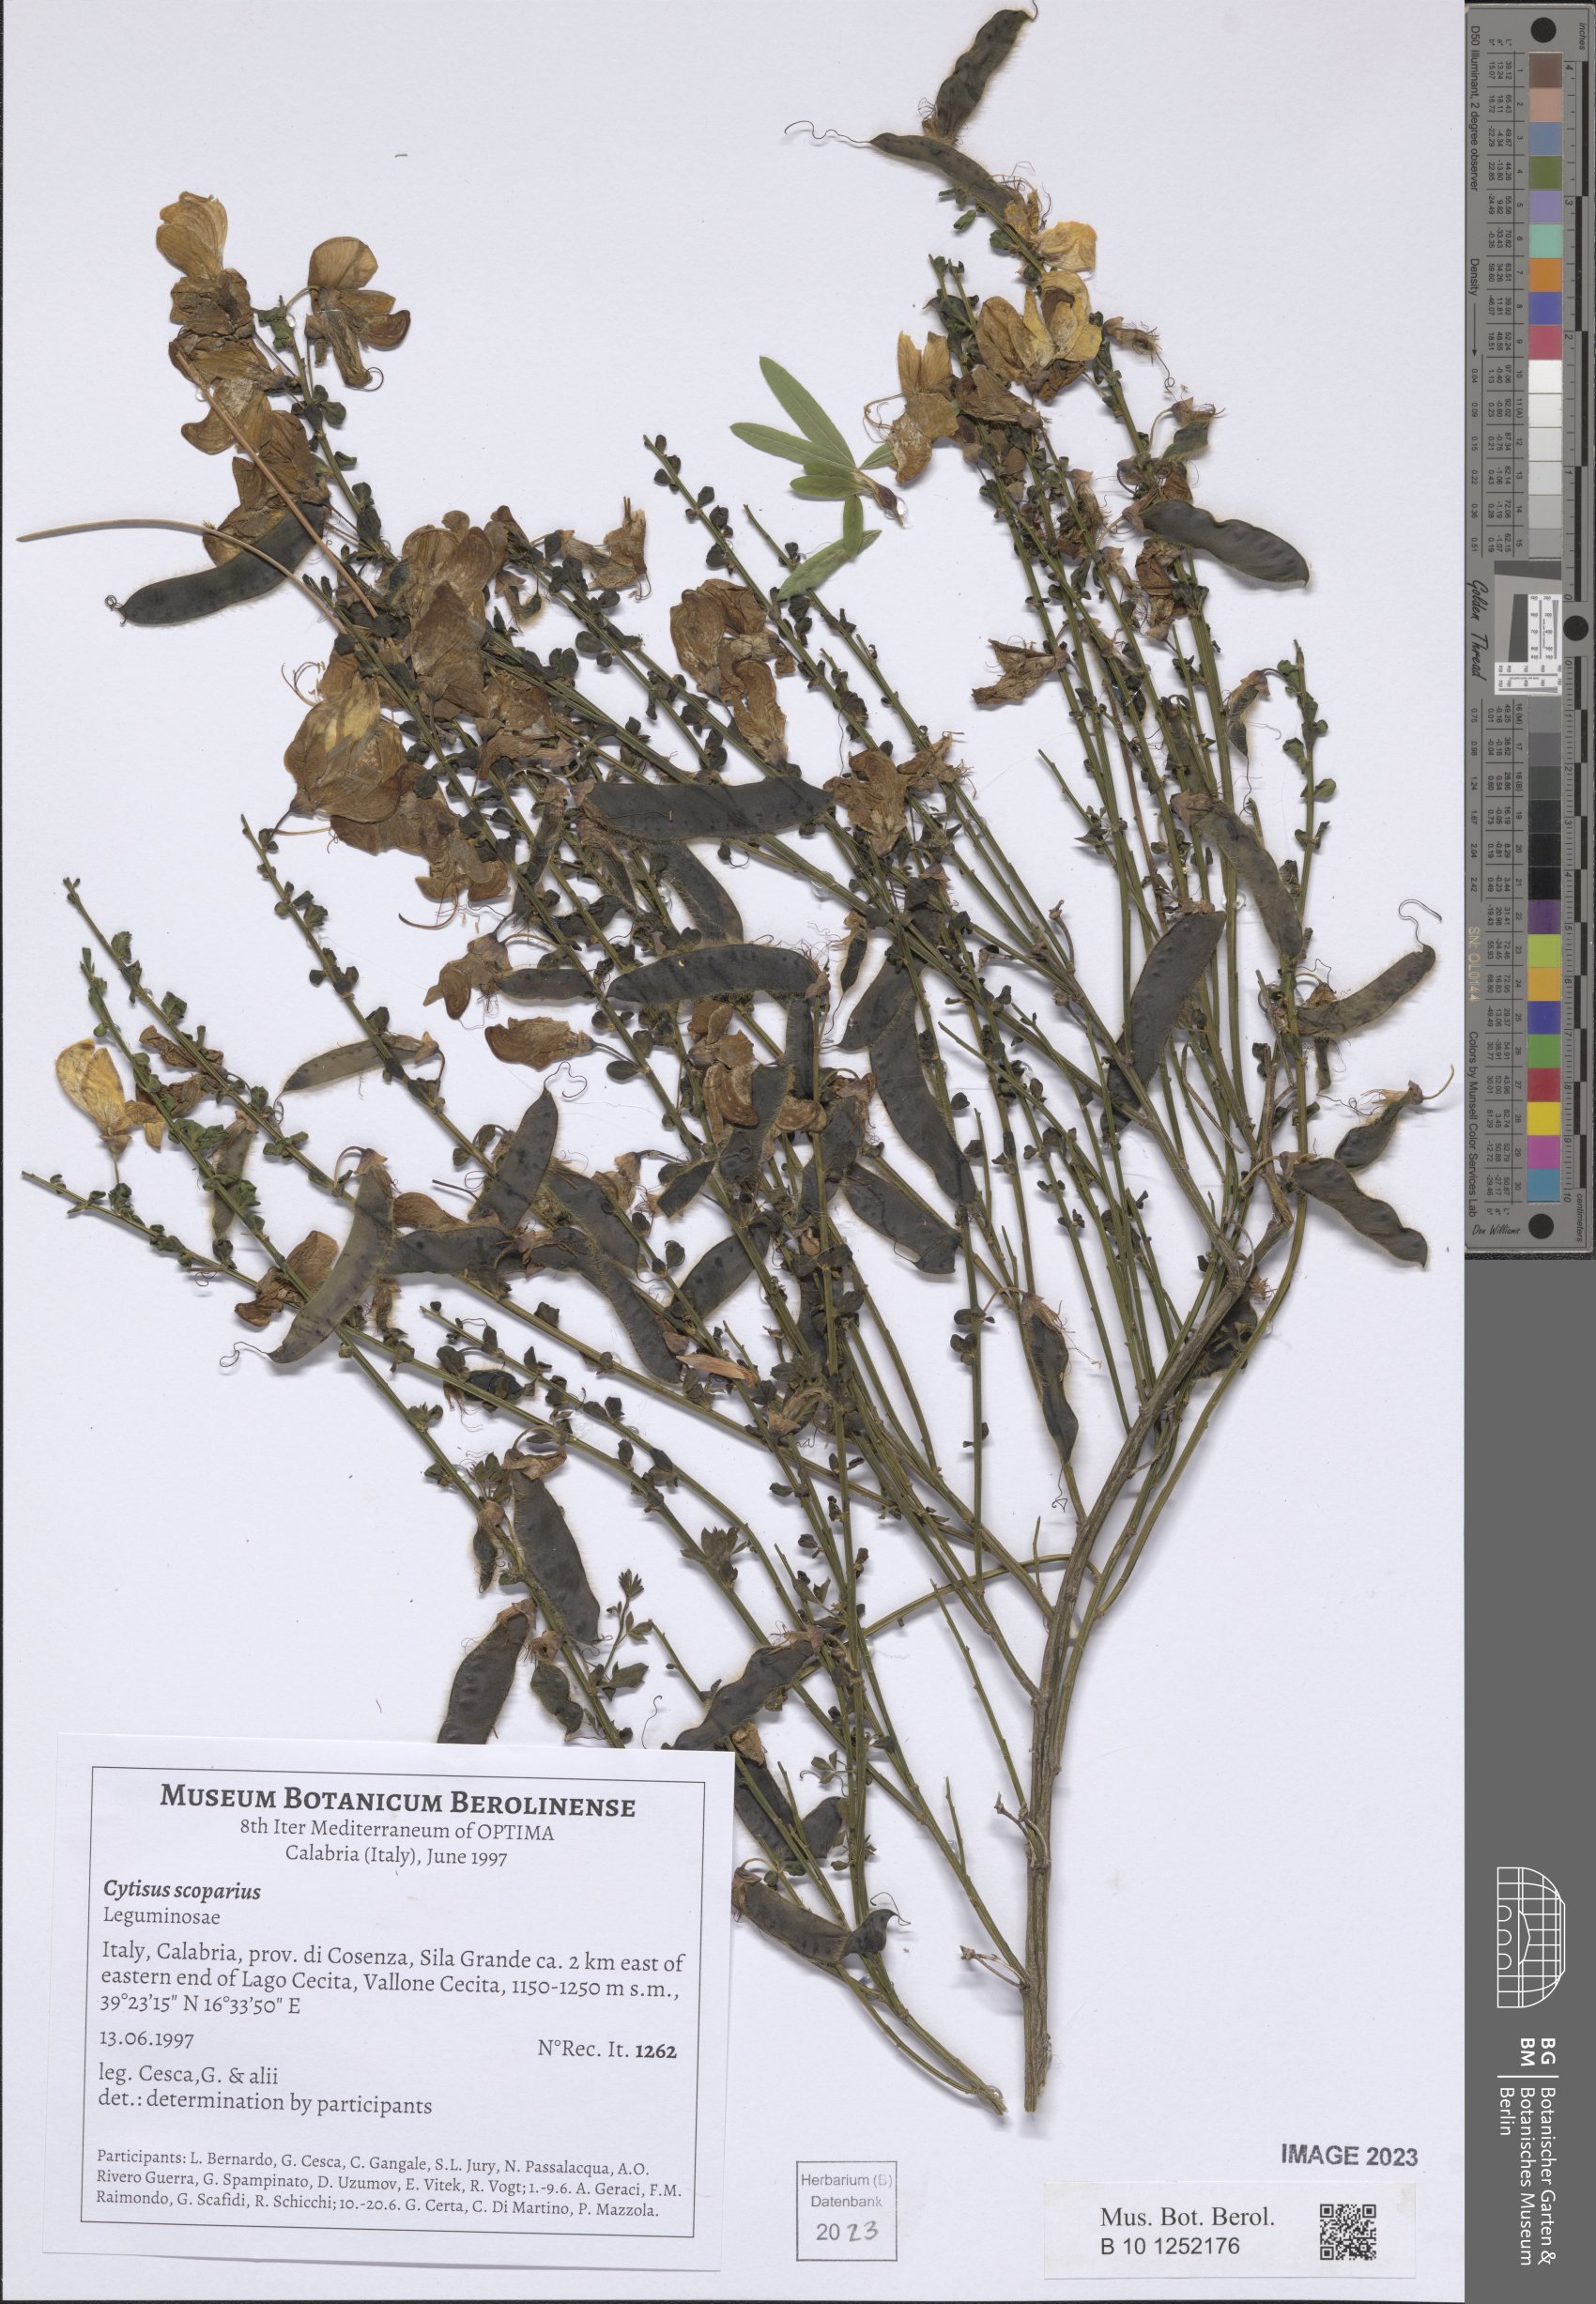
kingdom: Plantae
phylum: Tracheophyta
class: Magnoliopsida
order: Fabales
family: Fabaceae
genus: Cytisus
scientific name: Cytisus scoparius
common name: Scotch broom
